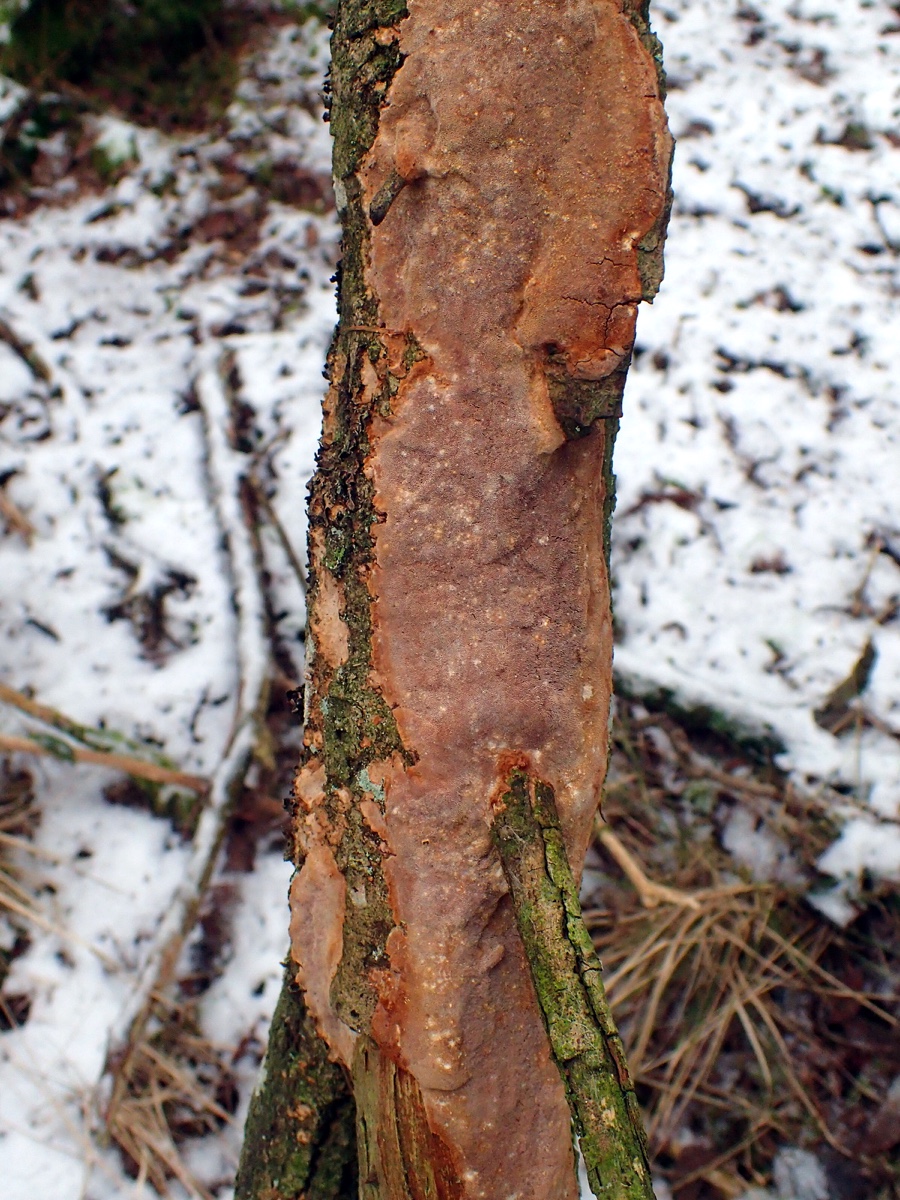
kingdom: Fungi
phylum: Basidiomycota
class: Agaricomycetes
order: Hymenochaetales
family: Hymenochaetaceae
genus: Fuscoporia
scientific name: Fuscoporia ferrea
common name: skorpe-ildporesvamp
